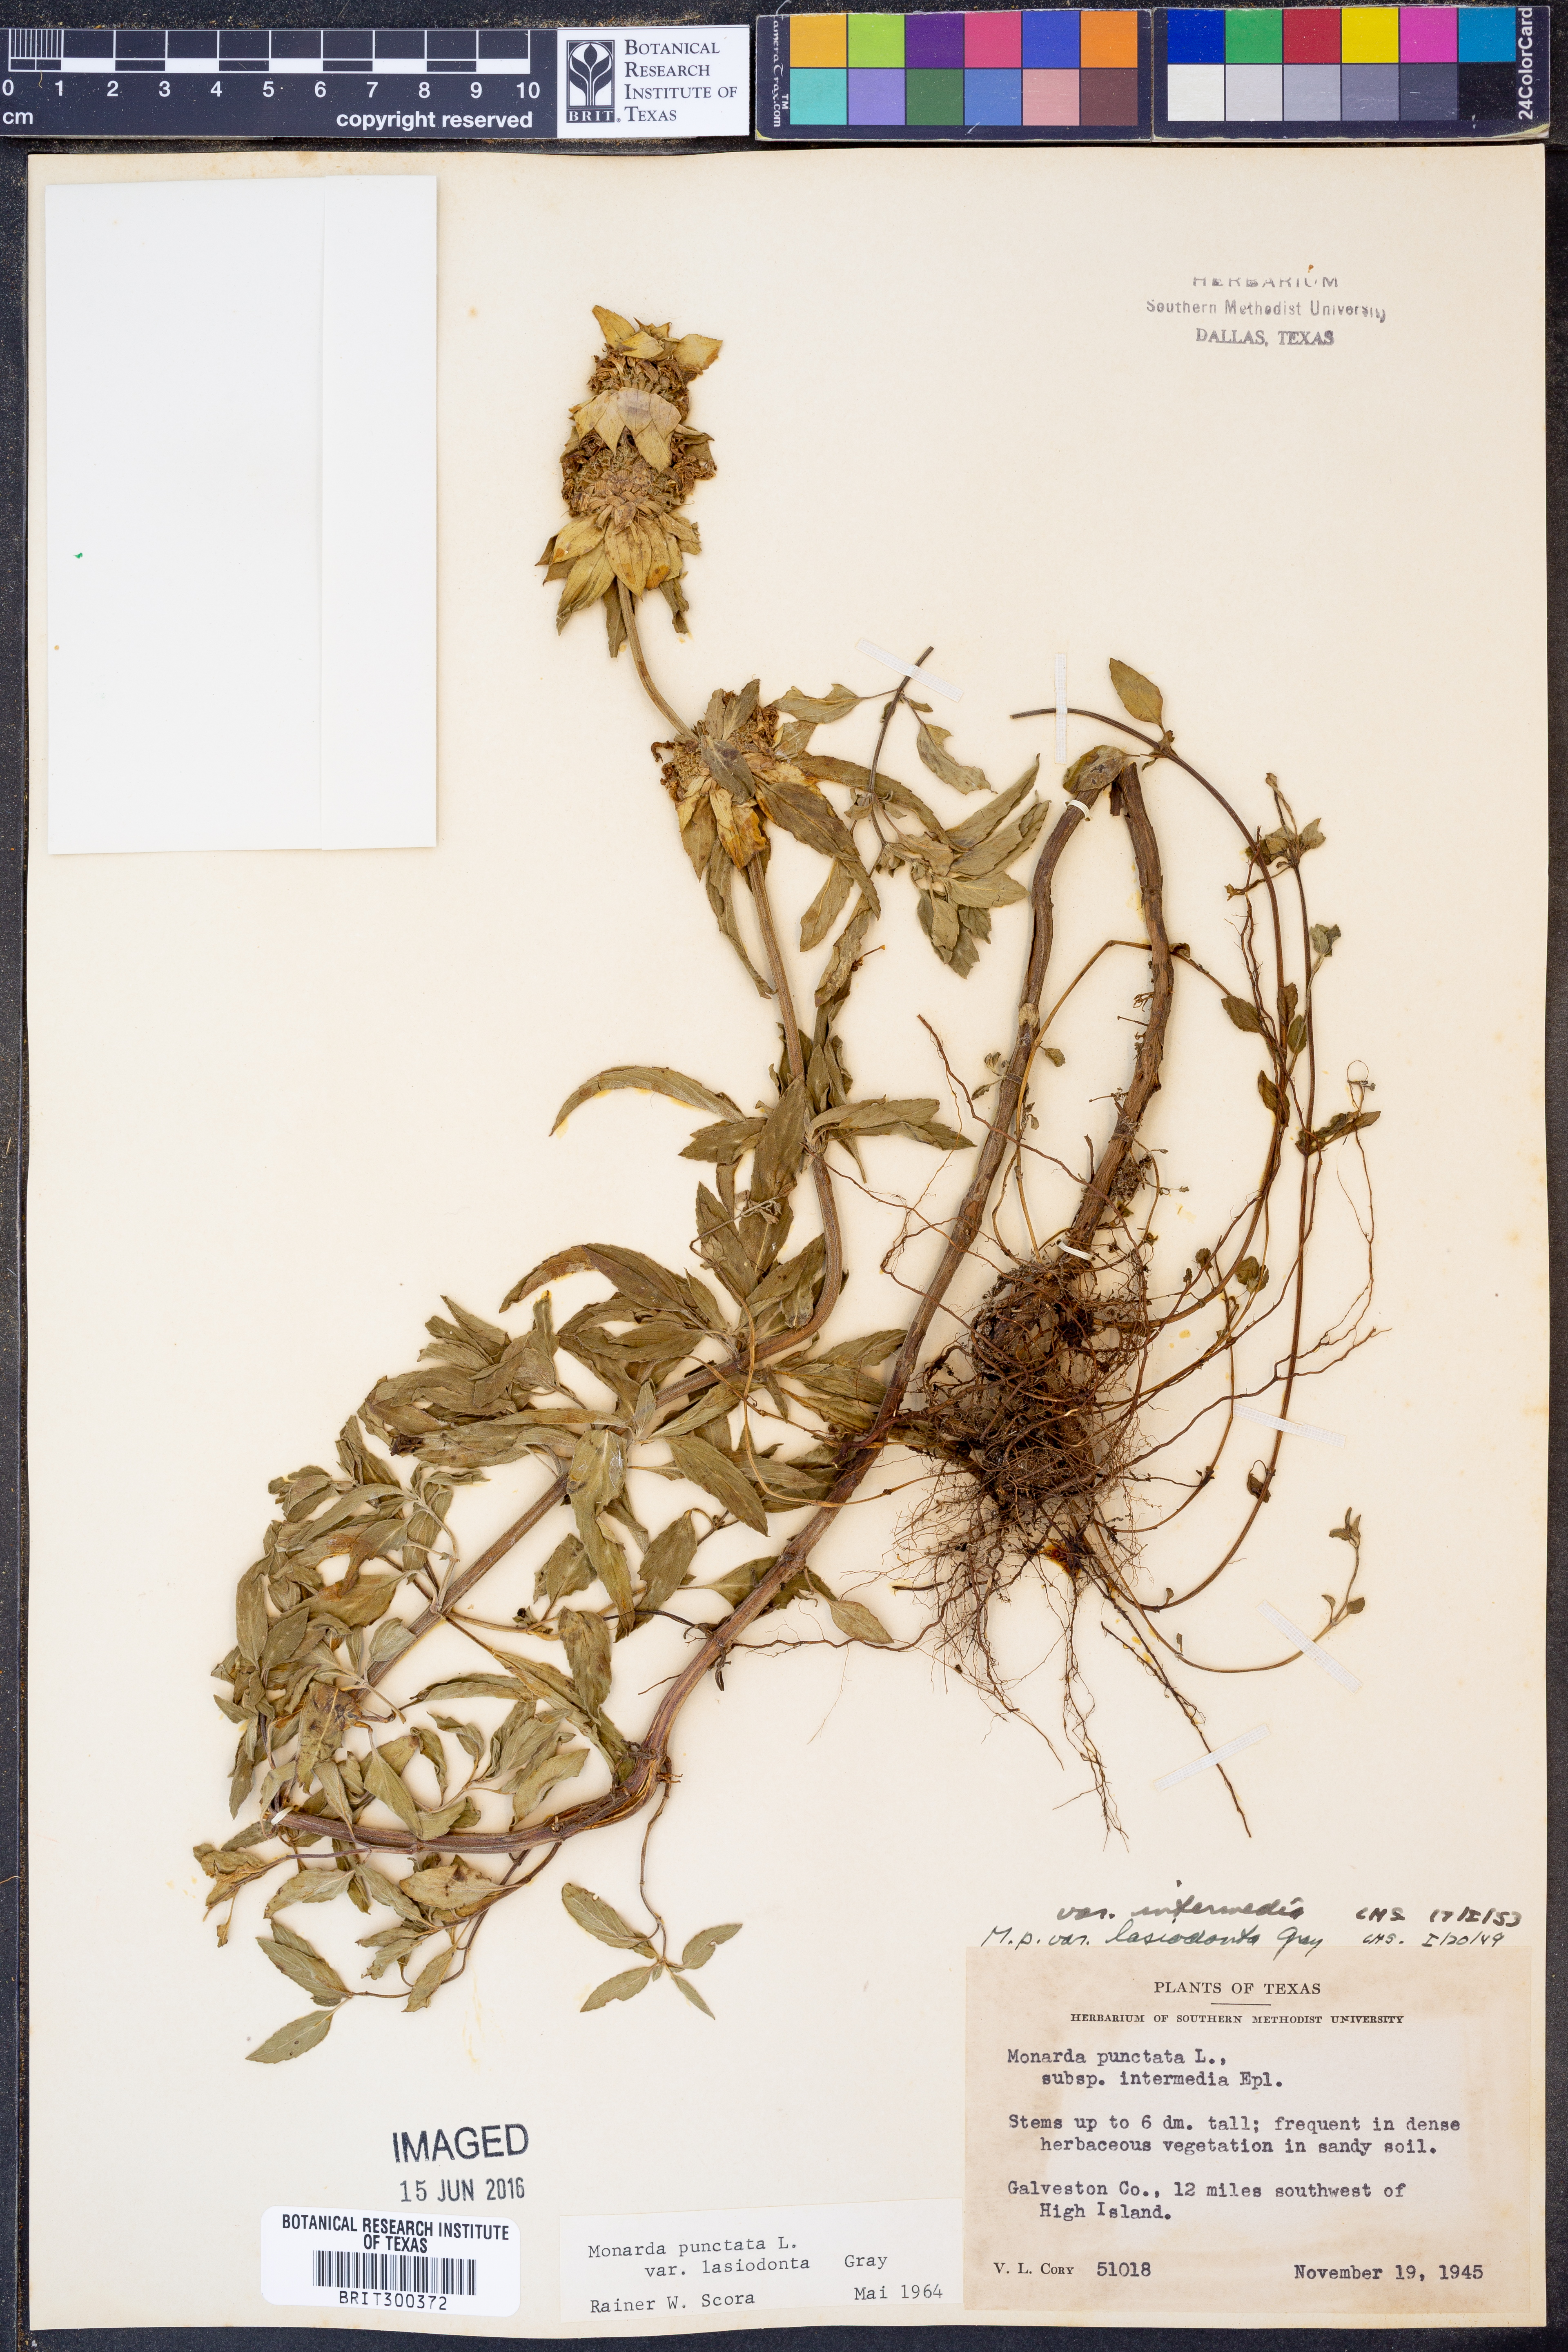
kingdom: Plantae
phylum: Tracheophyta
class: Magnoliopsida
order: Lamiales
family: Lamiaceae
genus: Monarda
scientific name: Monarda punctata
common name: Dotted monarda
